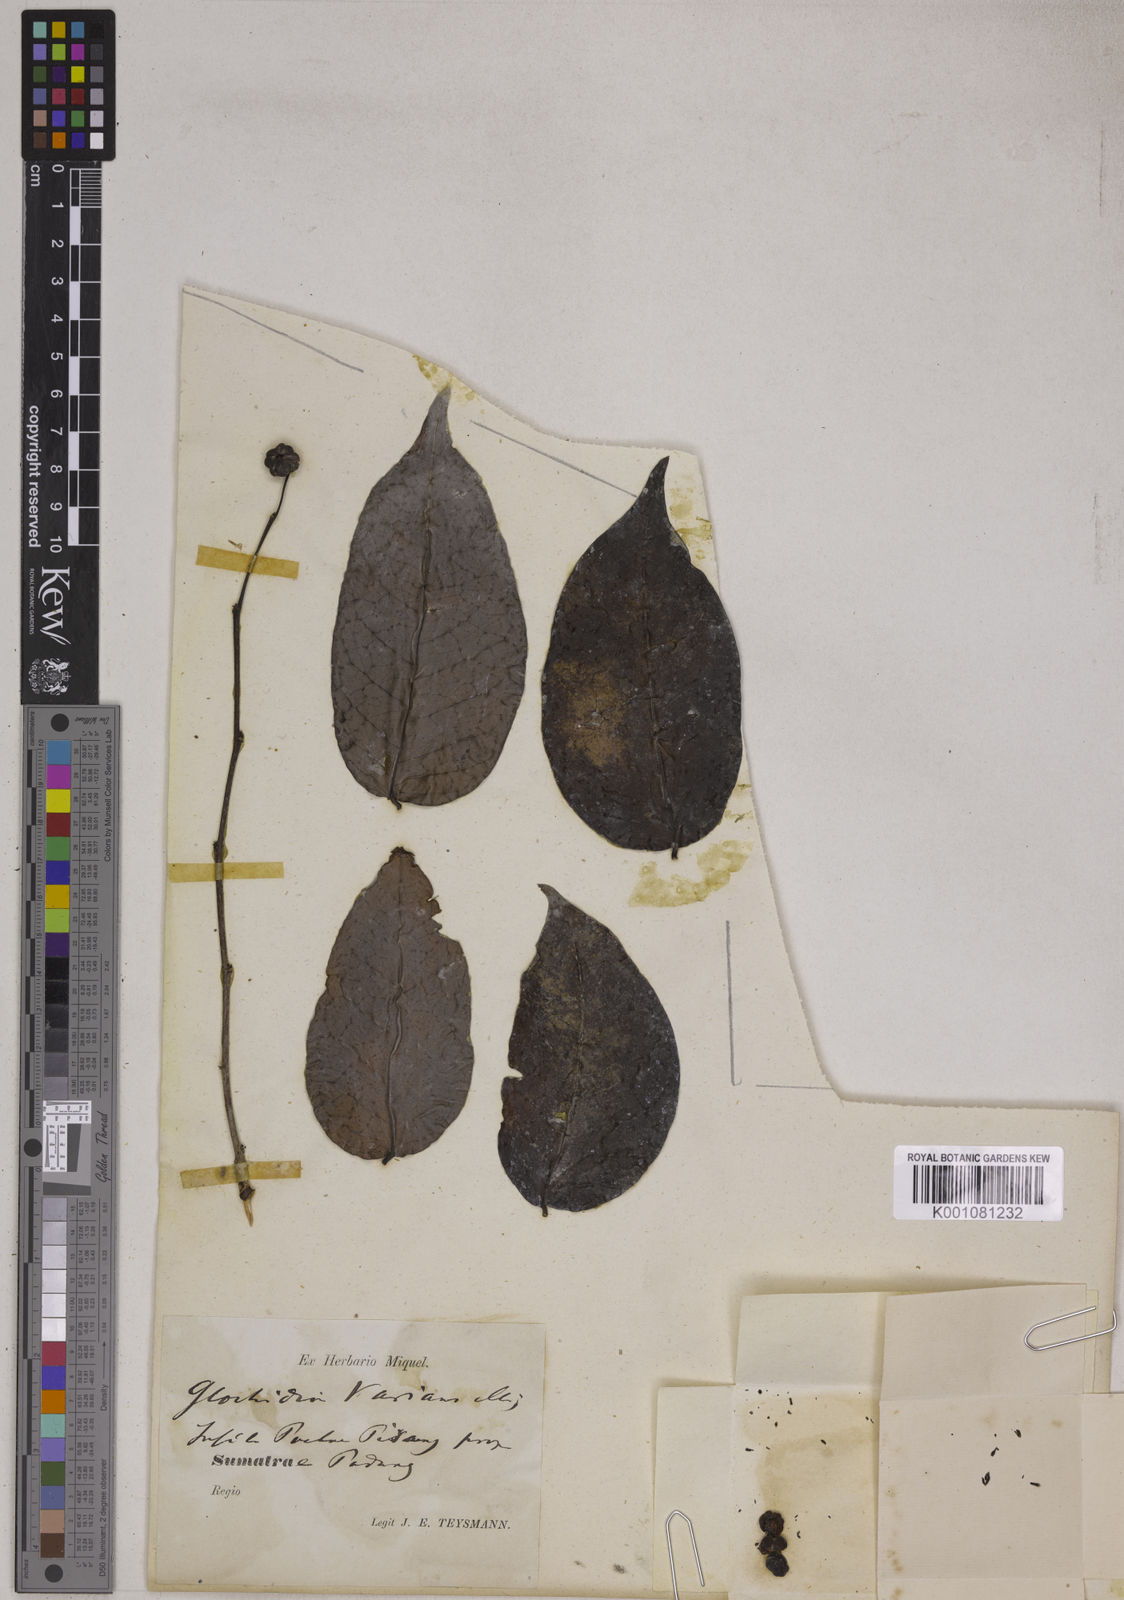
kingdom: Plantae
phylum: Tracheophyta
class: Magnoliopsida
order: Malpighiales
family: Phyllanthaceae
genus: Glochidion
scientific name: Glochidion varians
